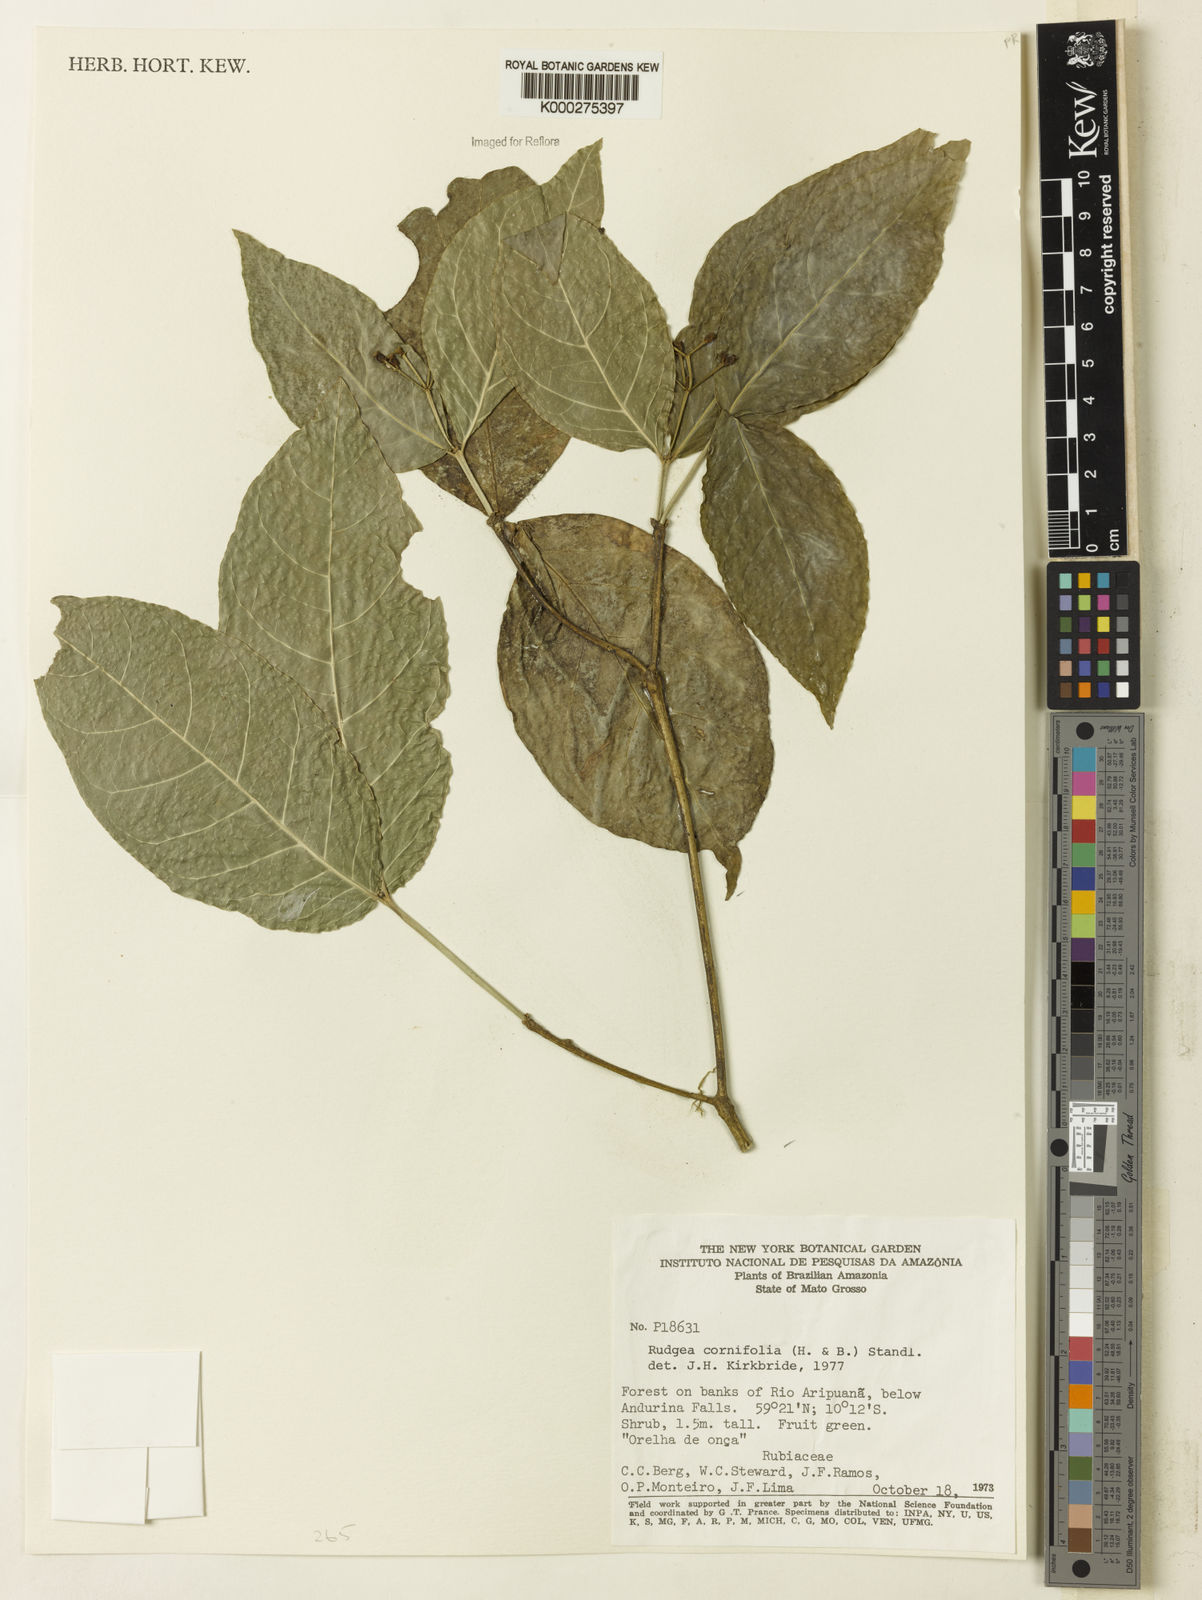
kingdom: Plantae
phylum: Tracheophyta
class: Magnoliopsida
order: Gentianales
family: Rubiaceae
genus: Rudgea
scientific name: Rudgea cornifolia
